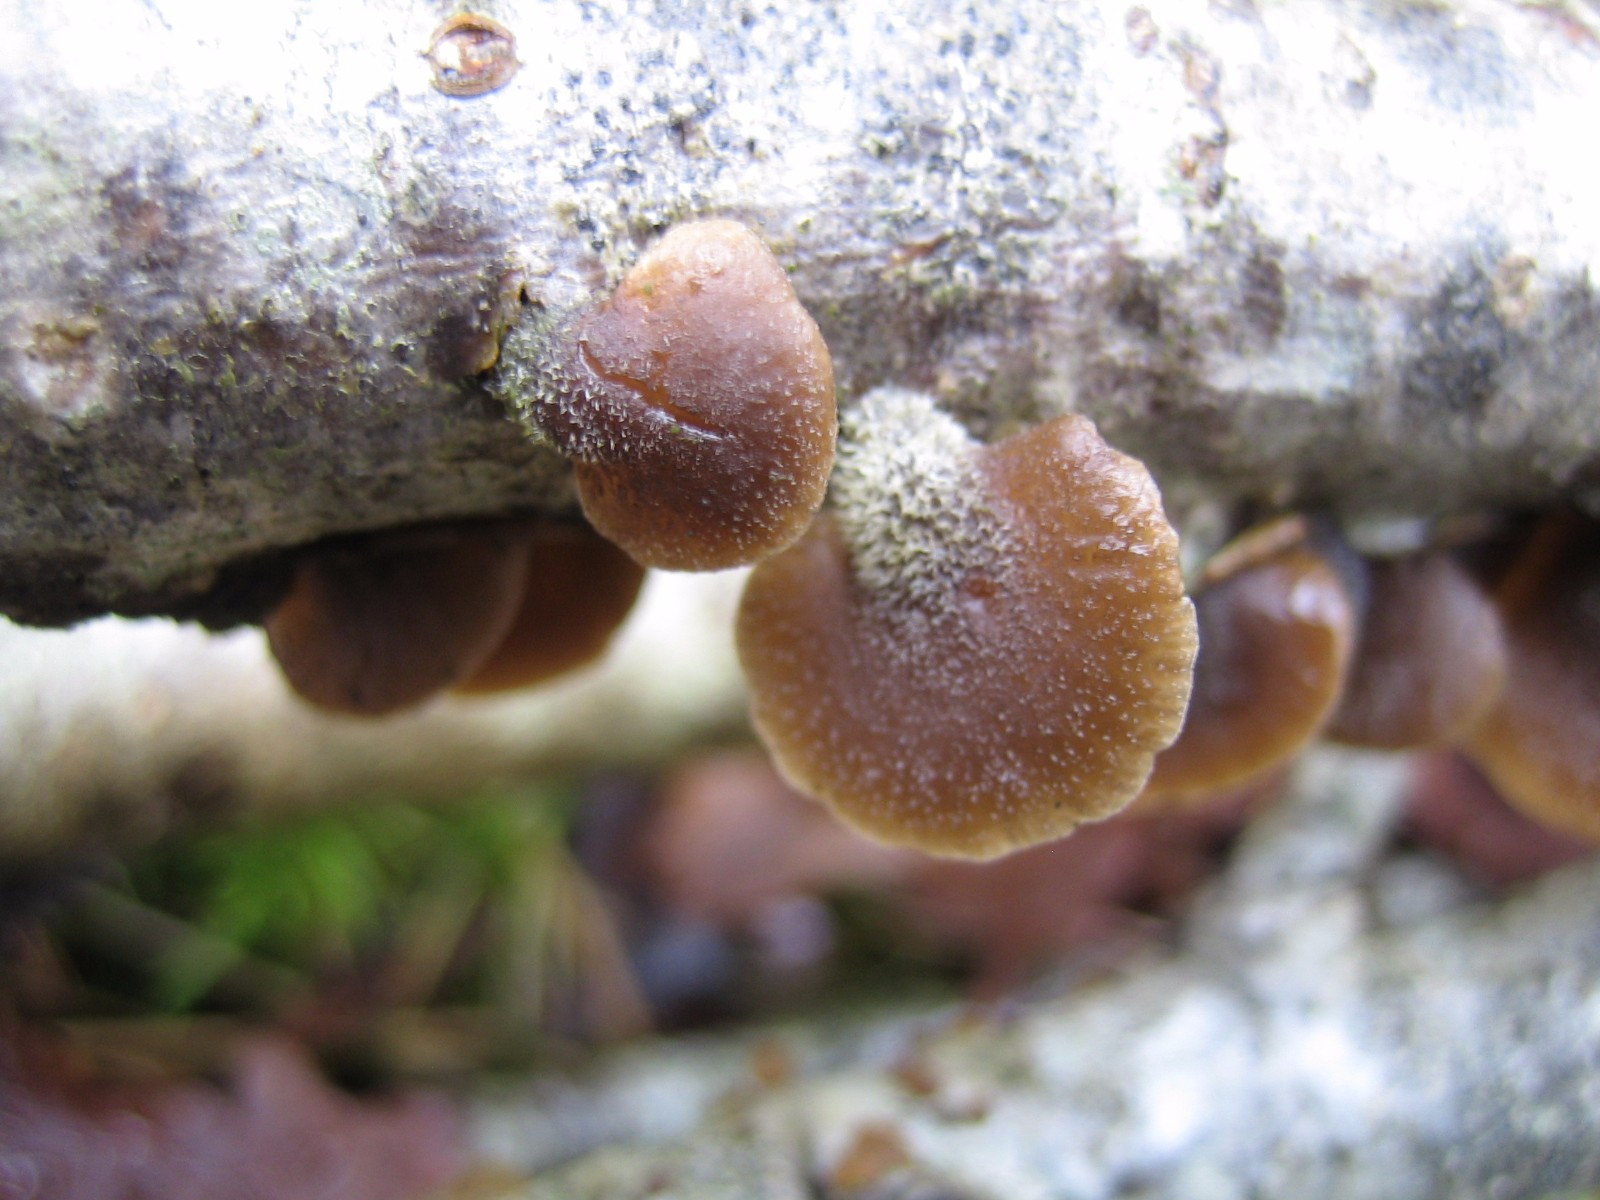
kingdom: Fungi
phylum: Basidiomycota
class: Agaricomycetes
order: Agaricales
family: Pleurotaceae
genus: Hohenbuehelia
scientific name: Hohenbuehelia
